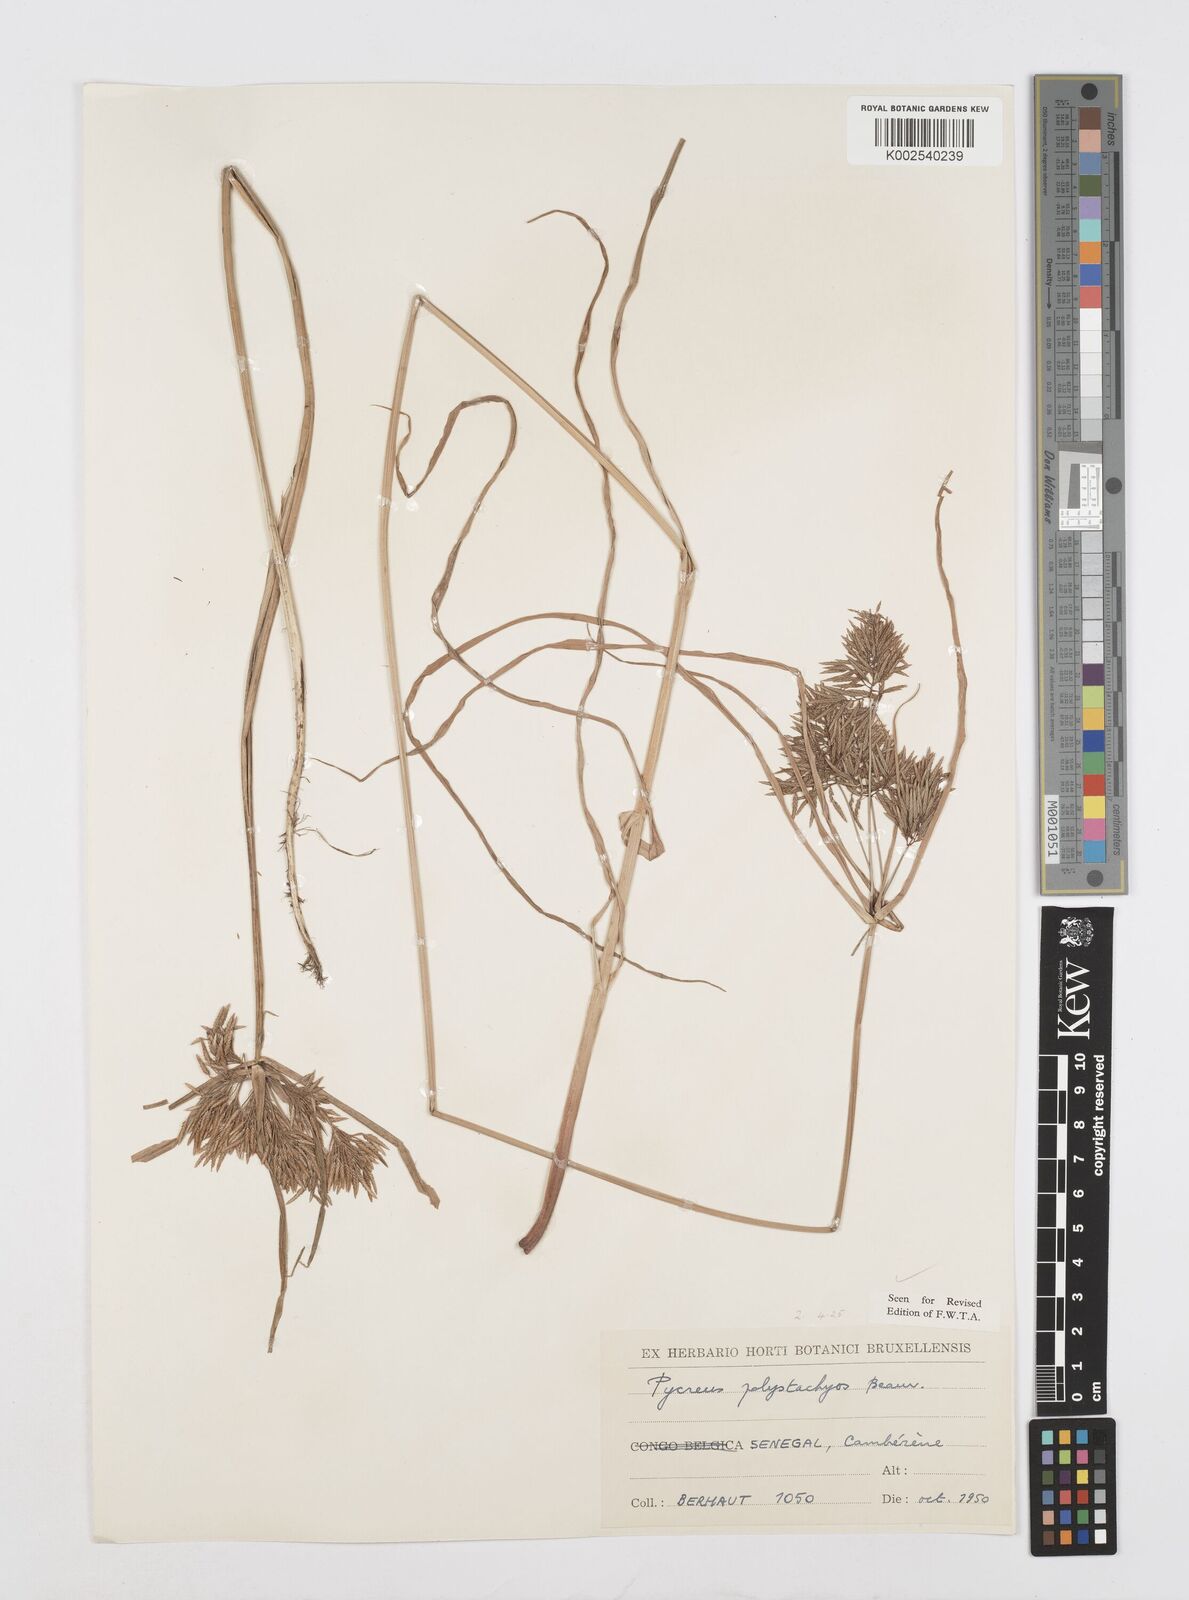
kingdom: Plantae
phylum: Tracheophyta
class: Liliopsida
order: Poales
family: Cyperaceae
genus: Cyperus
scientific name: Cyperus polystachyos
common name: Bunchy flat sedge
